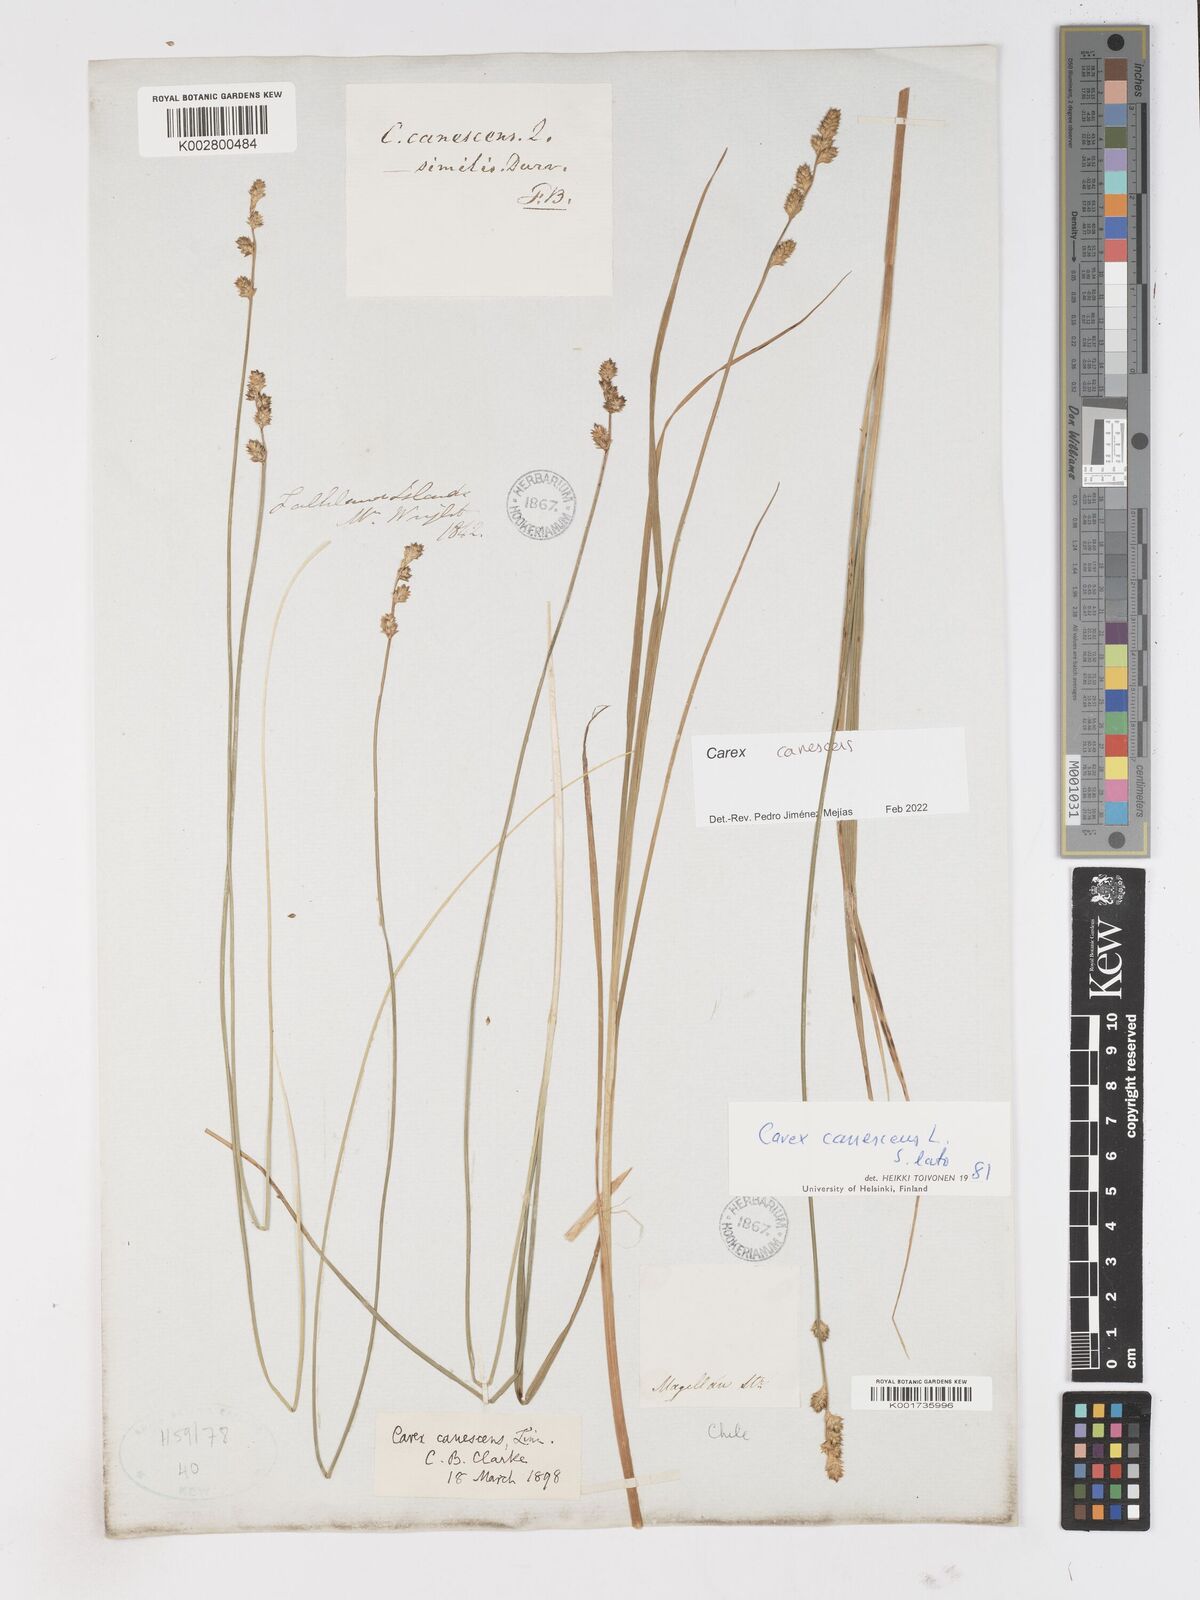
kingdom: Plantae
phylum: Tracheophyta
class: Liliopsida
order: Poales
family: Cyperaceae
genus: Carex
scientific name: Carex curta
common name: White sedge
